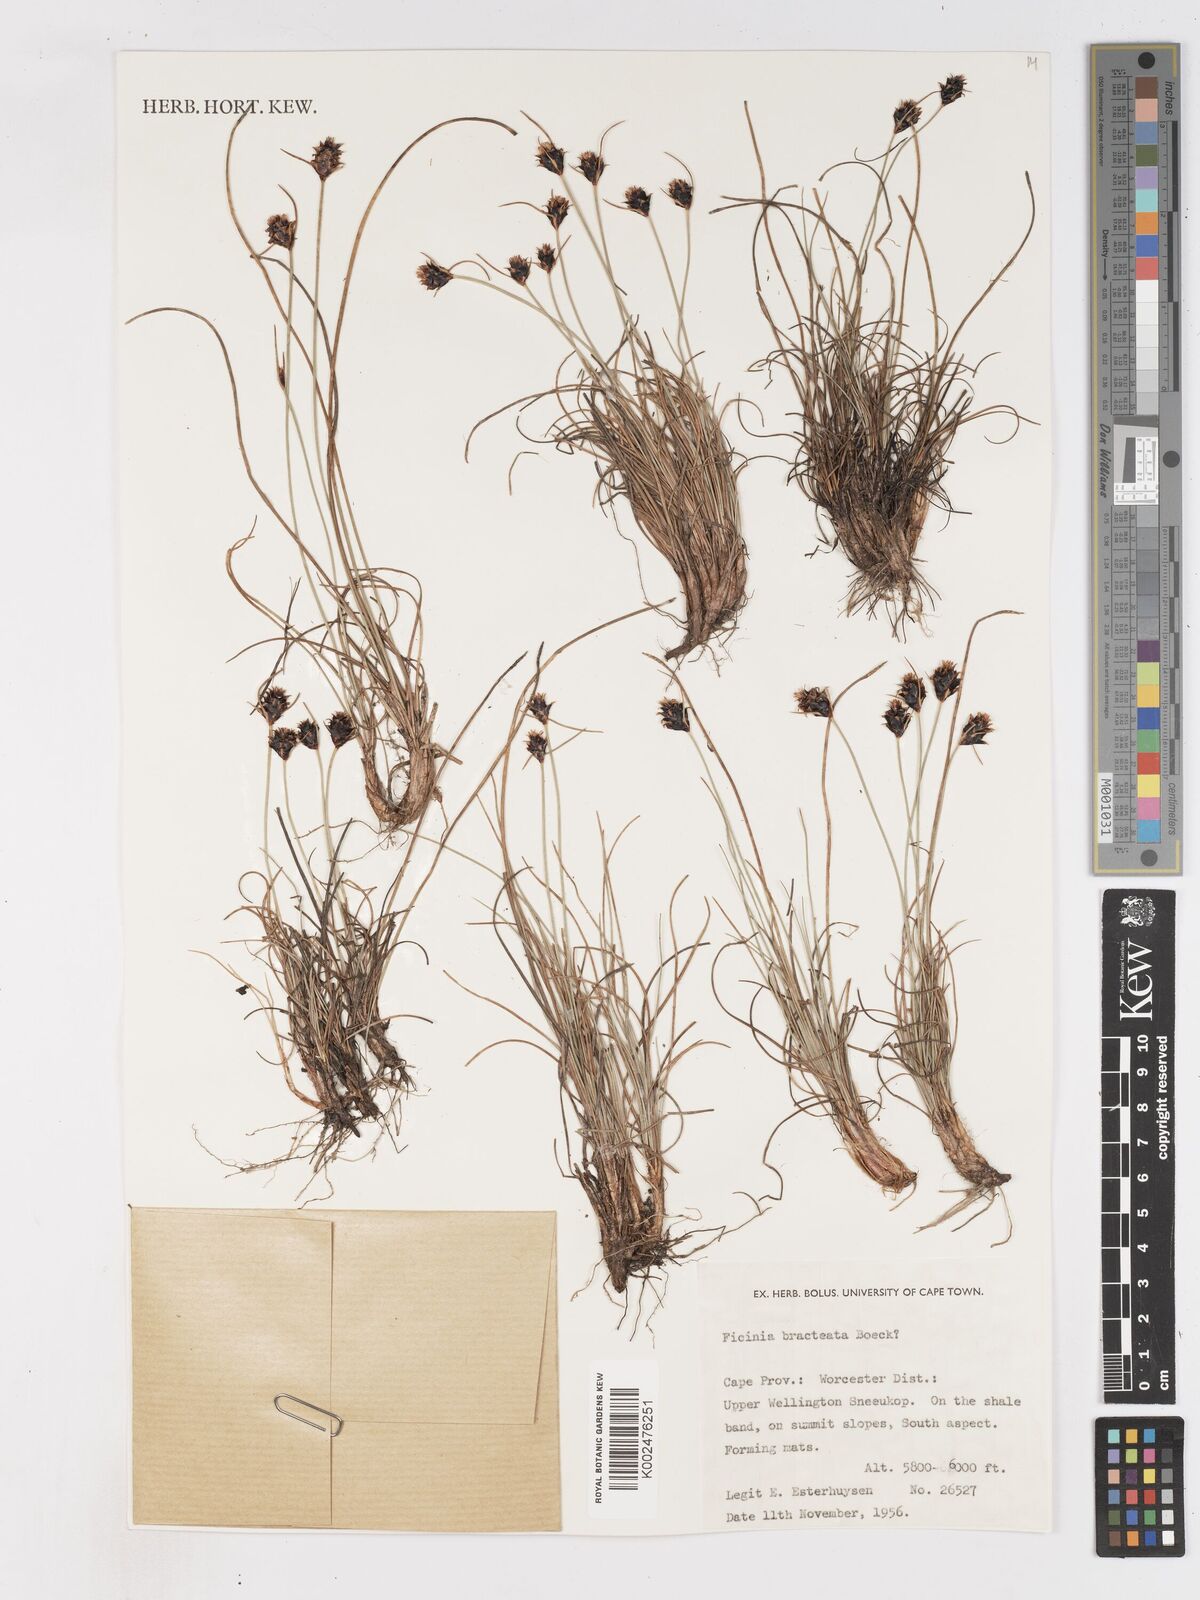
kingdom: Plantae
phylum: Tracheophyta
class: Liliopsida
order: Poales
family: Cyperaceae
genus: Ficinia
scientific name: Ficinia nigrescens
